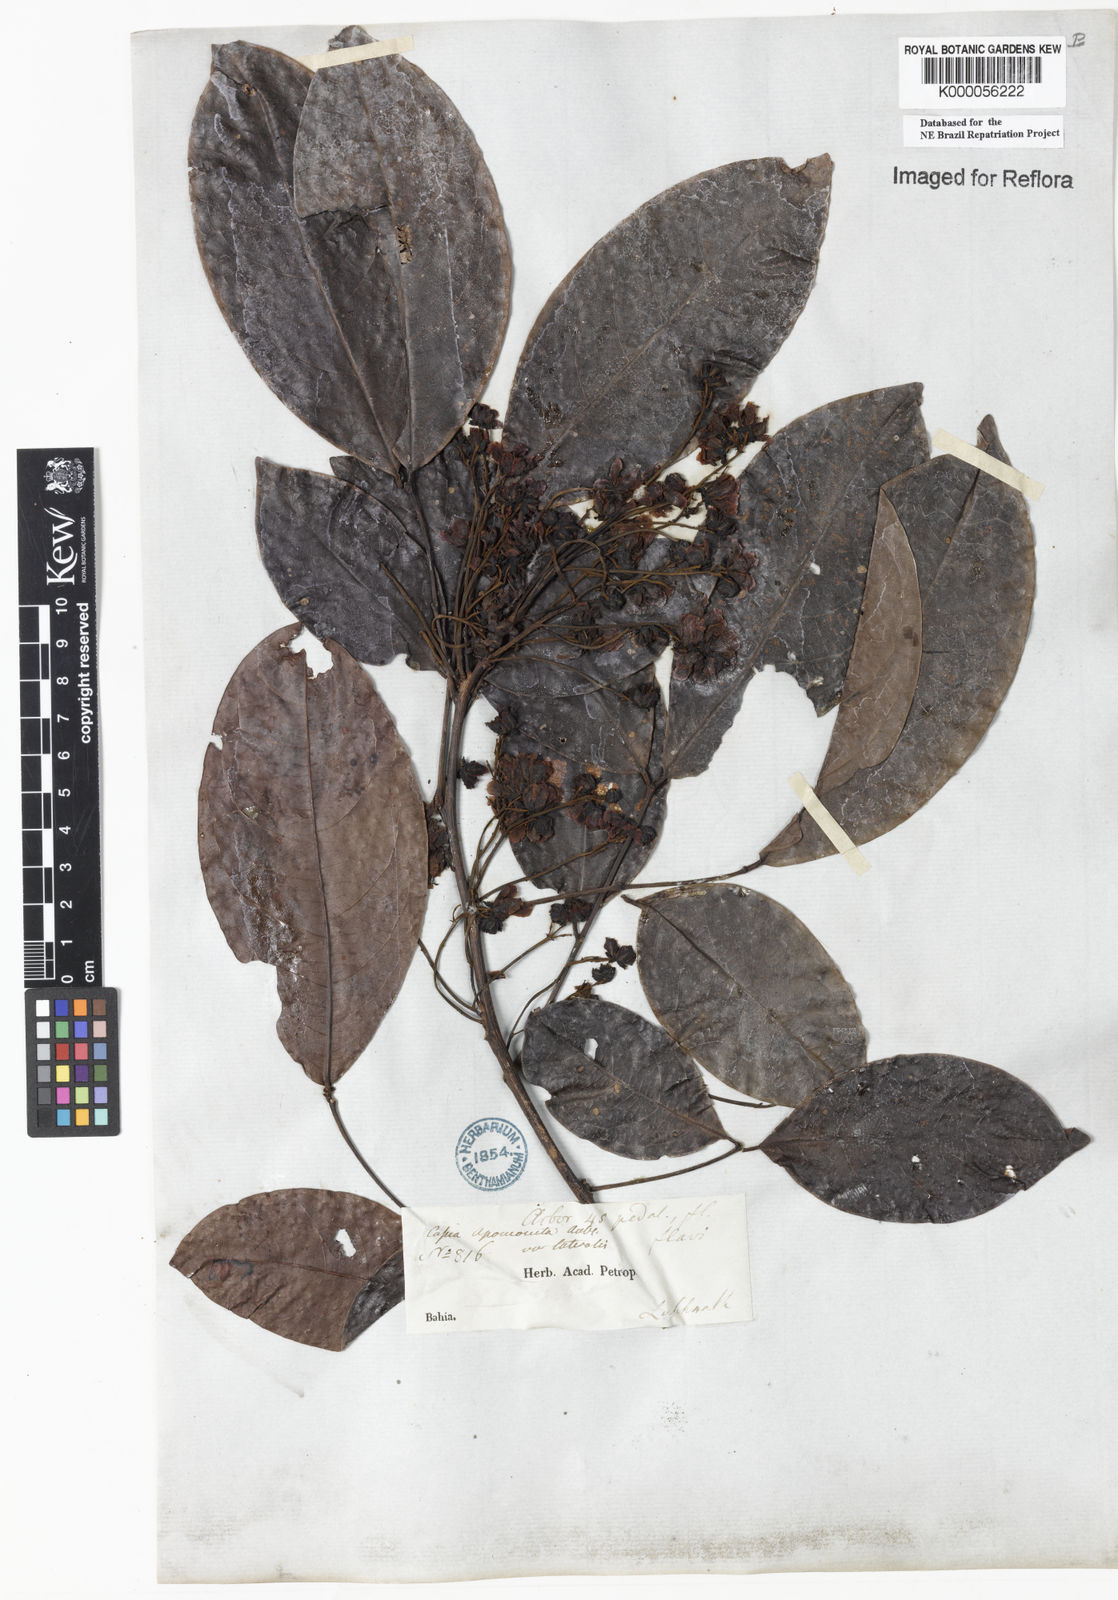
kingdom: Plantae
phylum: Tracheophyta
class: Magnoliopsida
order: Fabales
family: Fabaceae
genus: Chamaecrista
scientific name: Chamaecrista apoucouita
